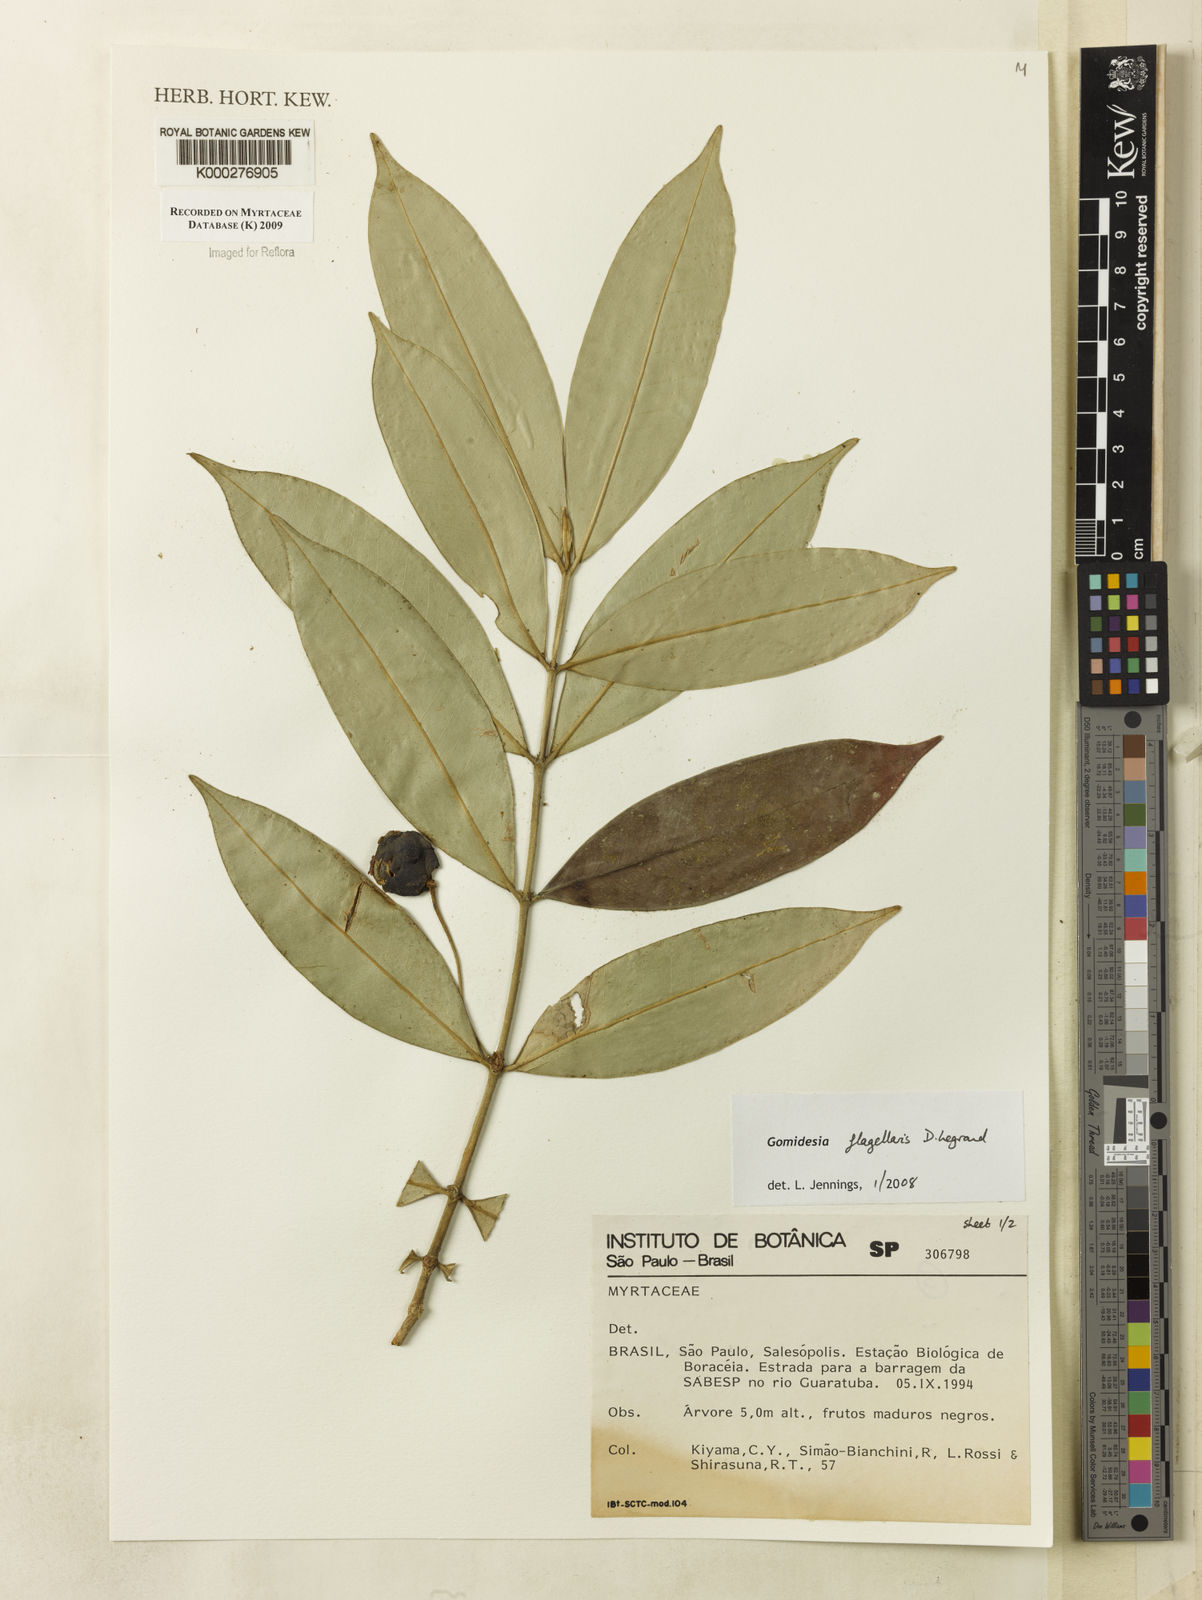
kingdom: Plantae
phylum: Tracheophyta
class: Magnoliopsida
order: Myrtales
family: Myrtaceae
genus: Myrcia
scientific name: Myrcia flagellaris
